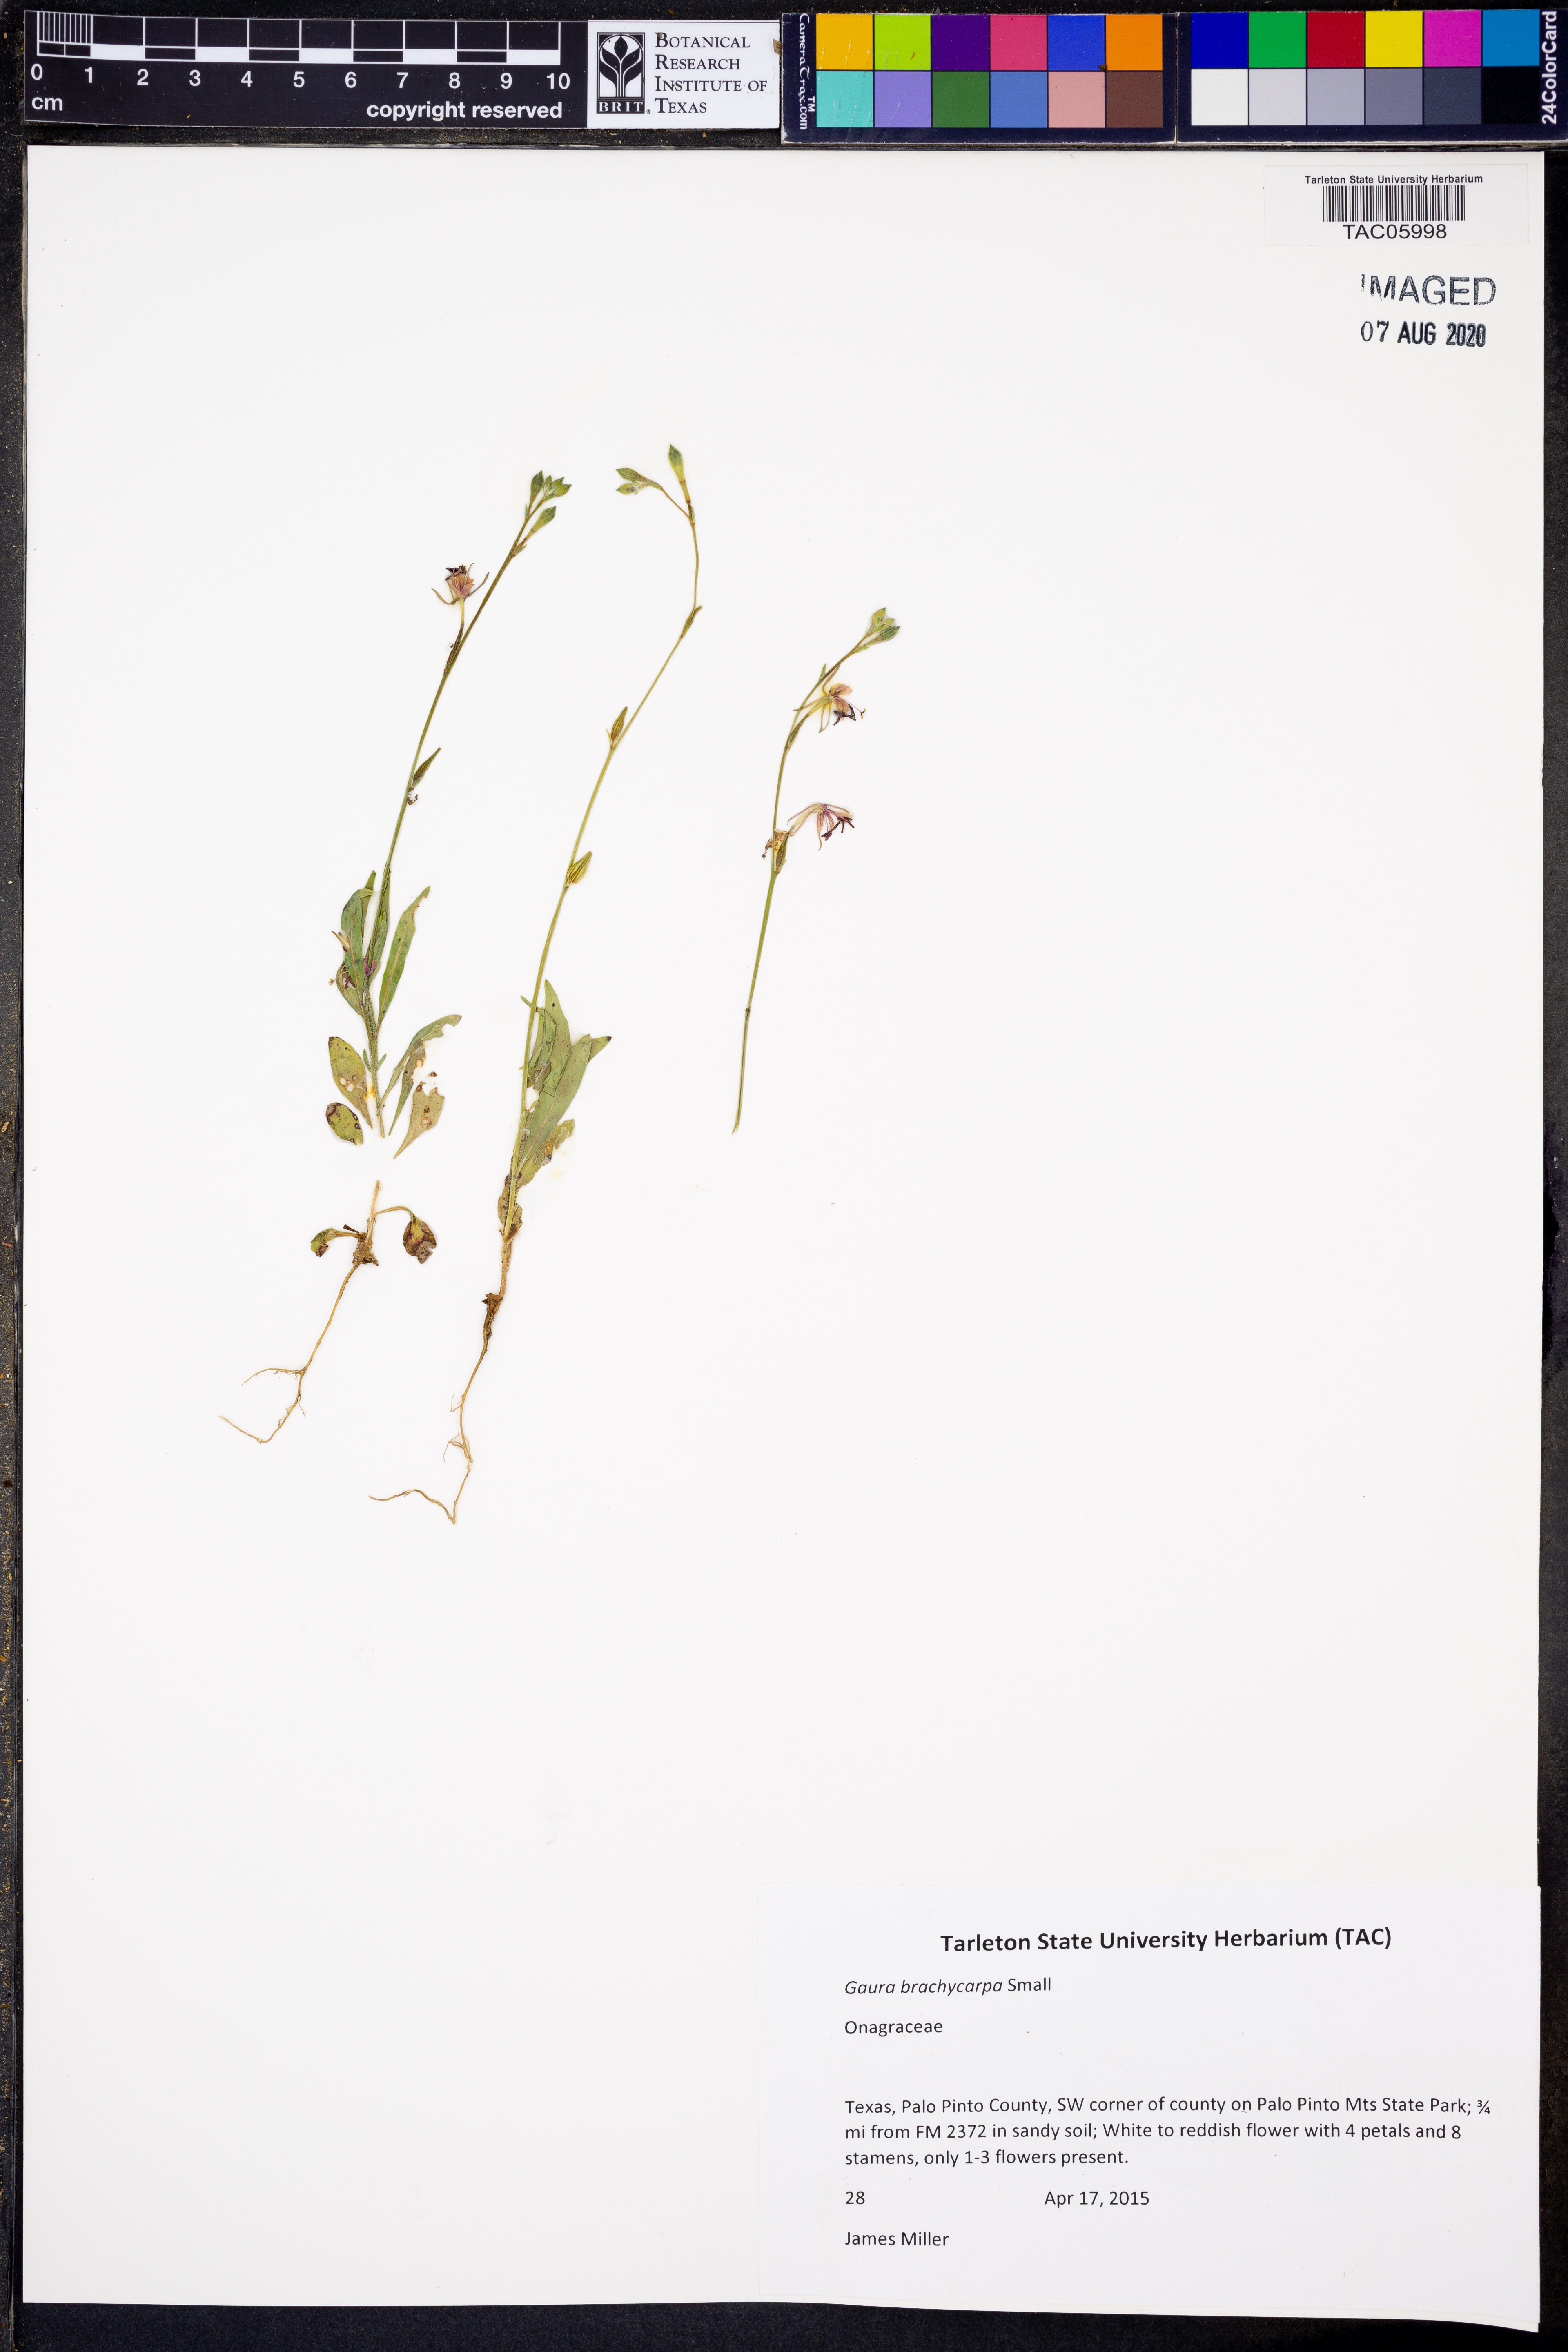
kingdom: Plantae
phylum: Tracheophyta
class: Magnoliopsida
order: Myrtales
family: Onagraceae
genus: Oenothera
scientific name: Oenothera patriciae
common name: Plains beeblossom
